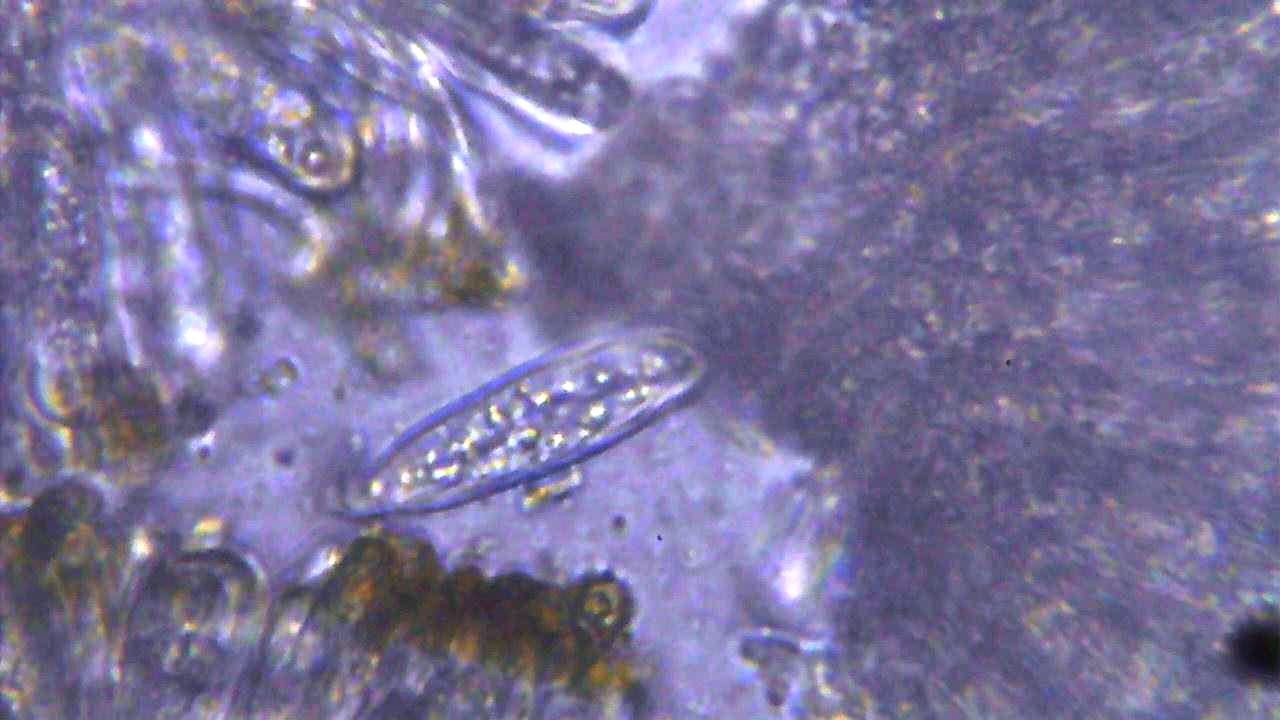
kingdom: Fungi
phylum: Ascomycota
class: Lecanoromycetes
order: Teloschistales
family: Teloschistaceae
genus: Athallia
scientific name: Athallia cerinella
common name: kvist-orangelav
